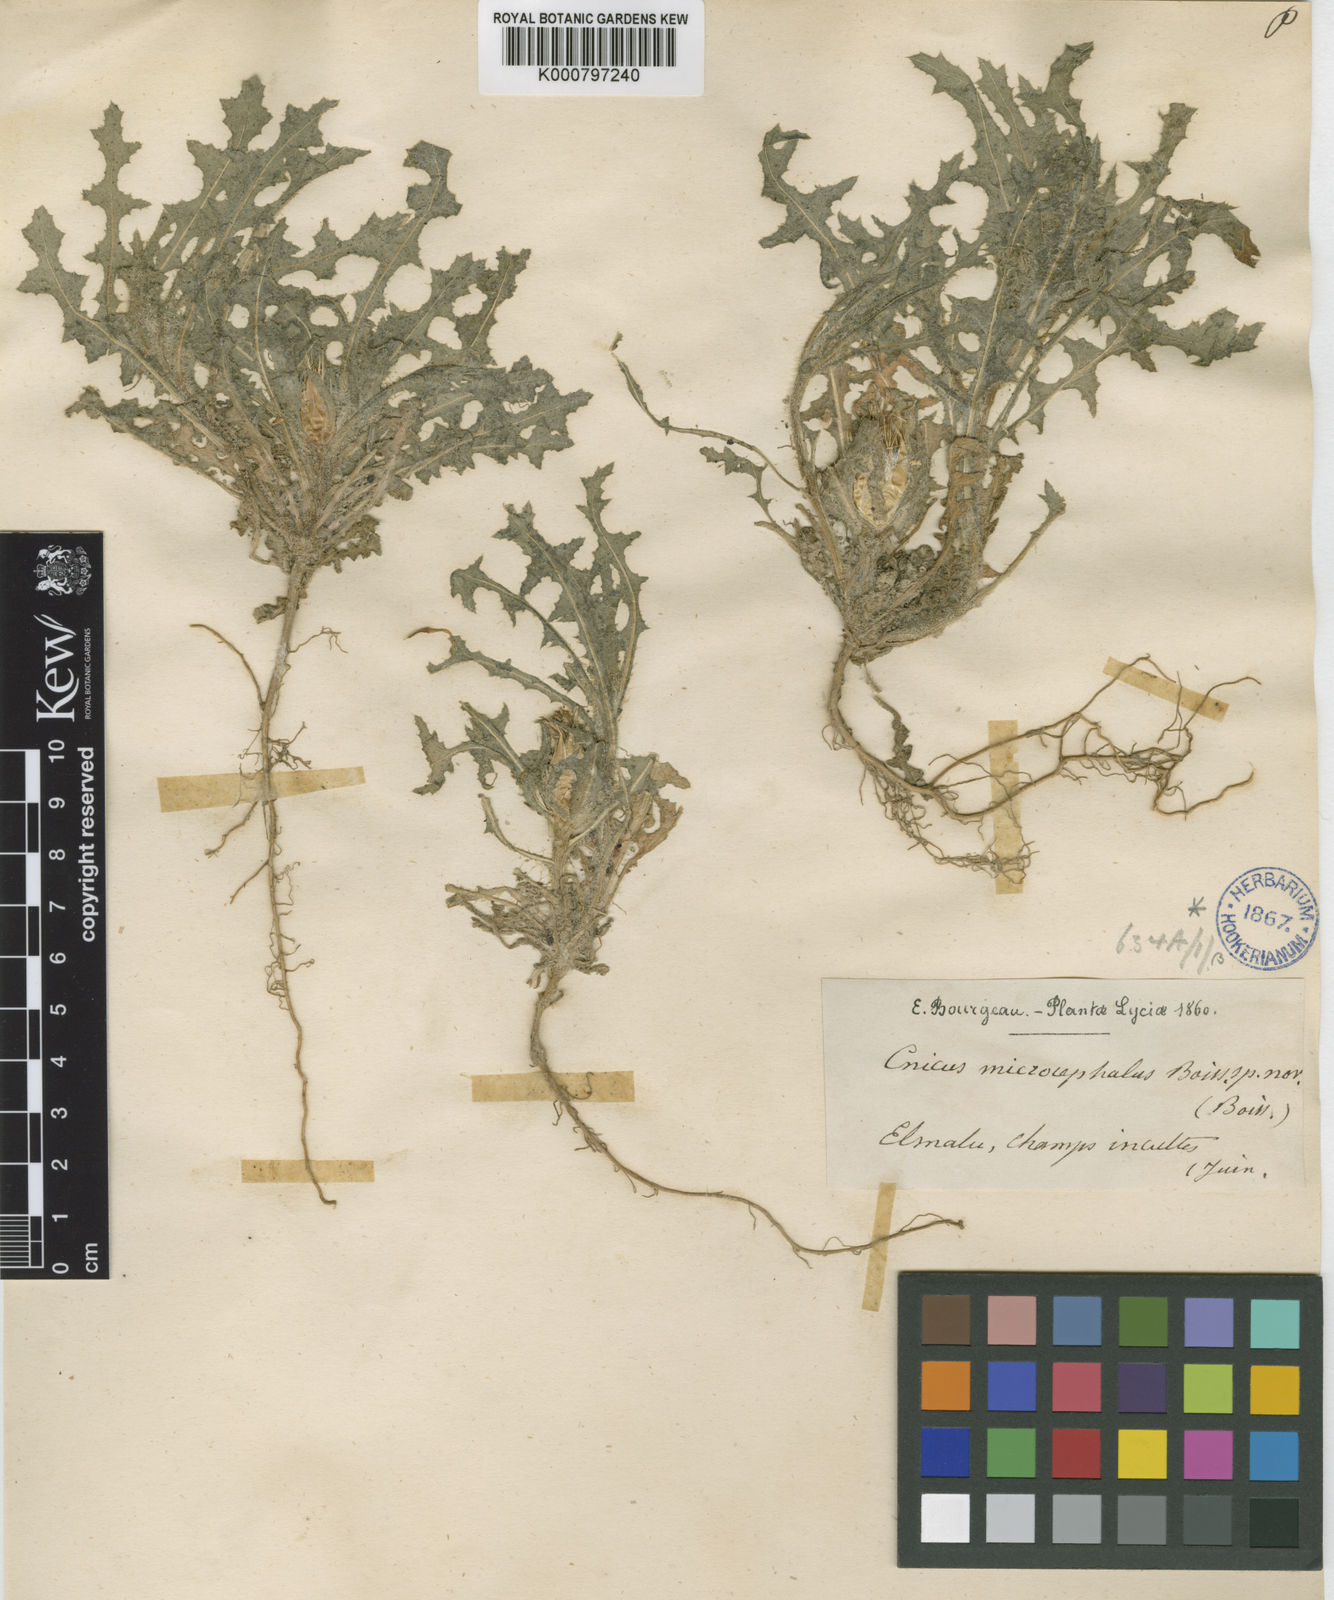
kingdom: Plantae
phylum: Tracheophyta
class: Magnoliopsida
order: Asterales
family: Asteraceae
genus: Centaurea
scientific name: Centaurea benedicta
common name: Blessed thistle
